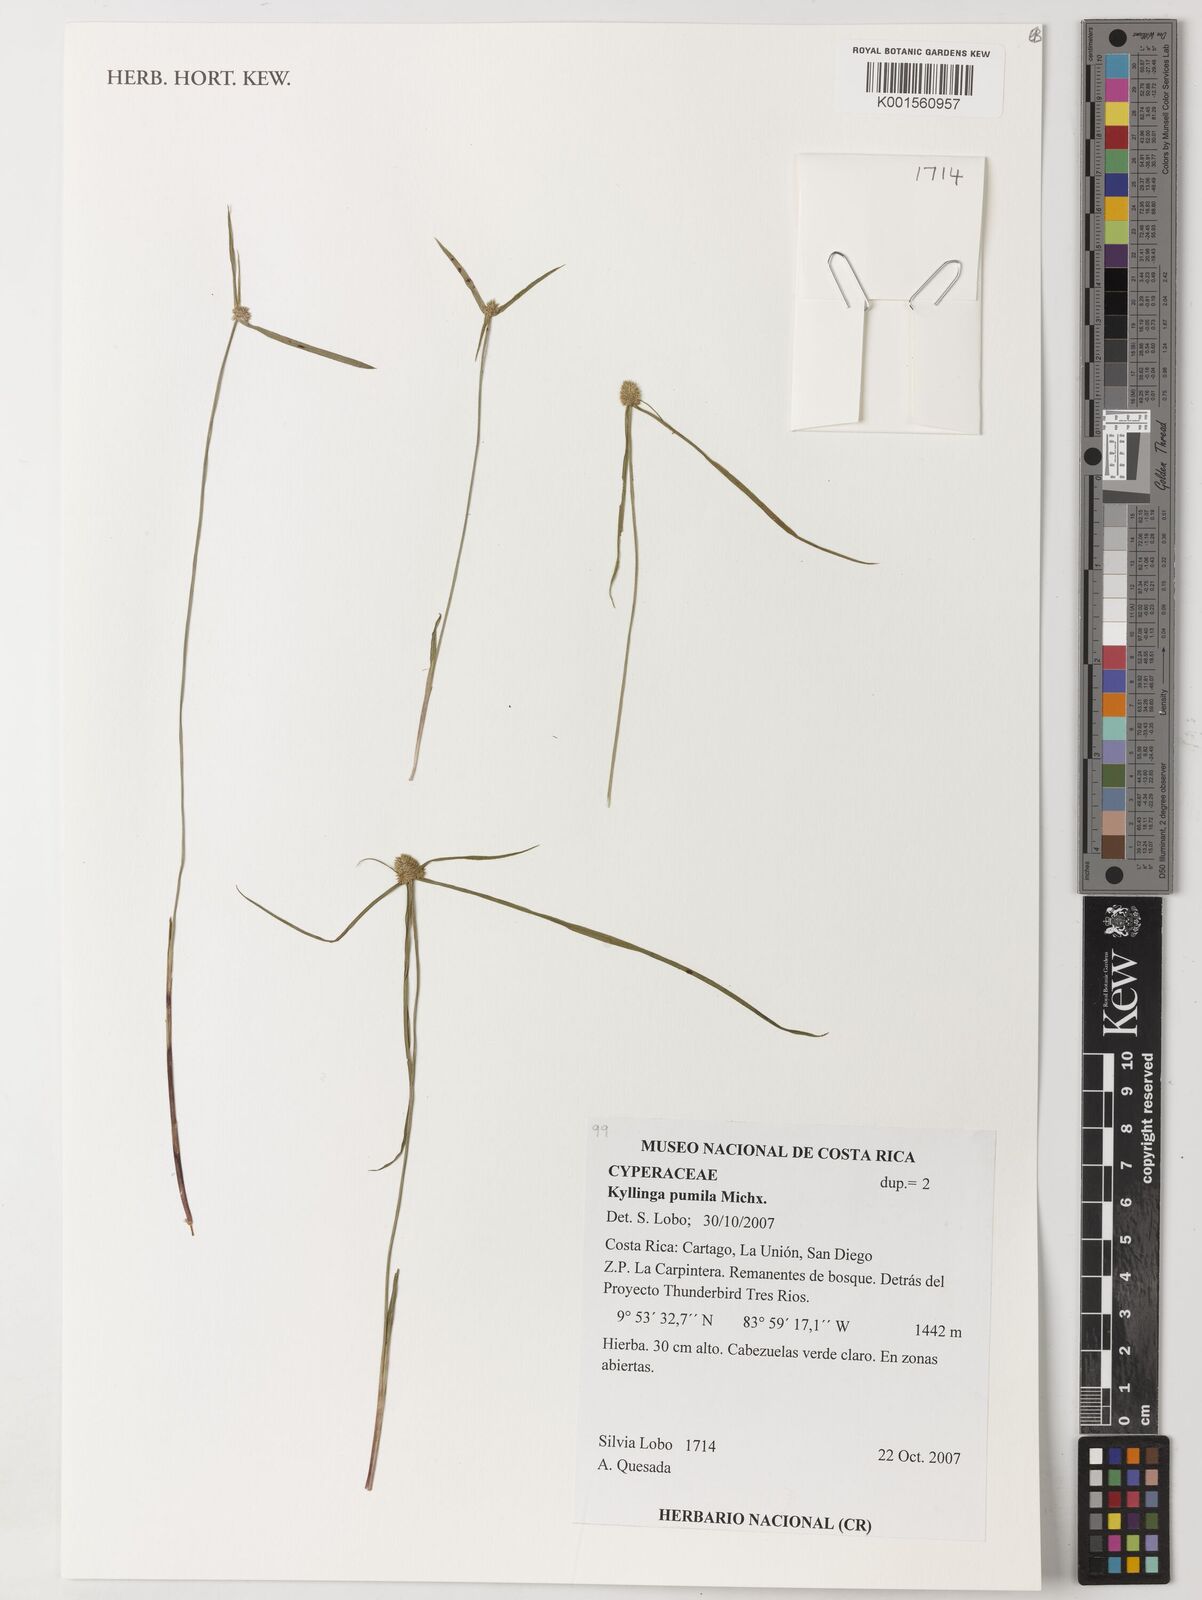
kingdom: Plantae
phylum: Tracheophyta
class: Liliopsida
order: Poales
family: Cyperaceae
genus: Cyperus
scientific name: Cyperus hortensis
